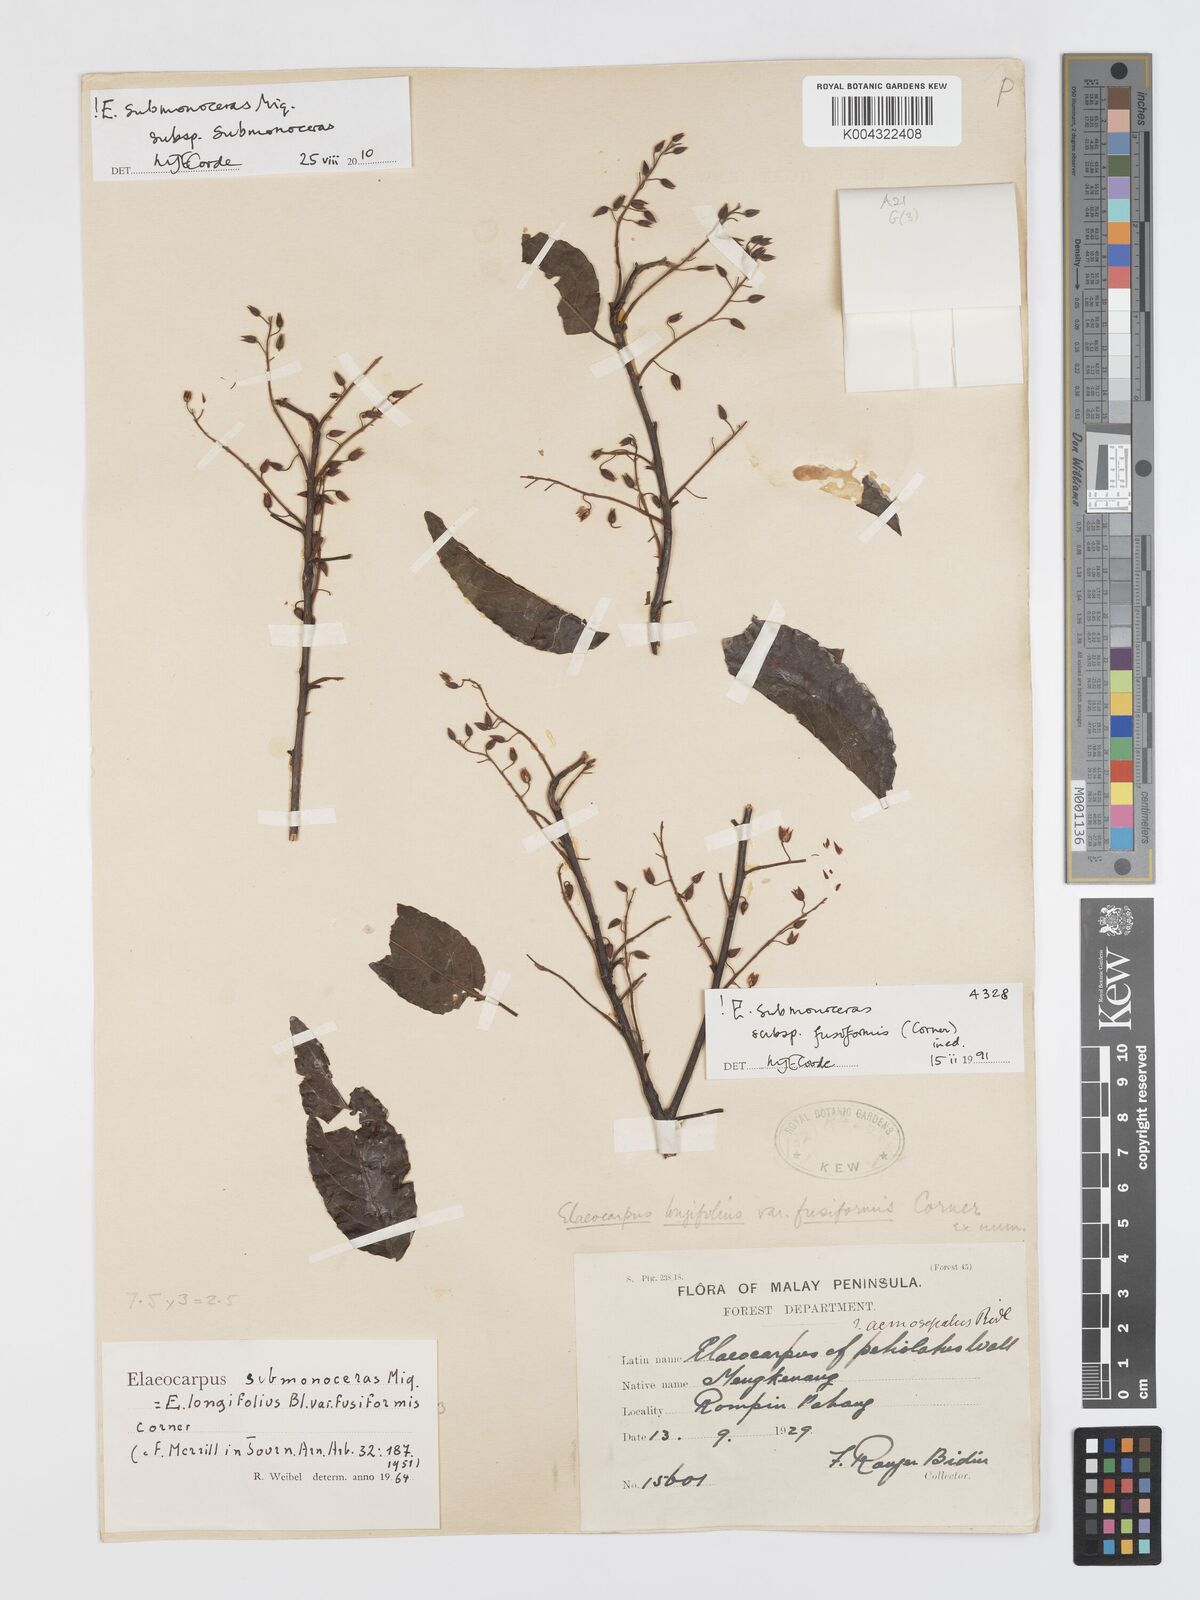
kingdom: Plantae
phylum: Tracheophyta
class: Magnoliopsida
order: Oxalidales
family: Elaeocarpaceae
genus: Elaeocarpus
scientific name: Elaeocarpus submonoceras
